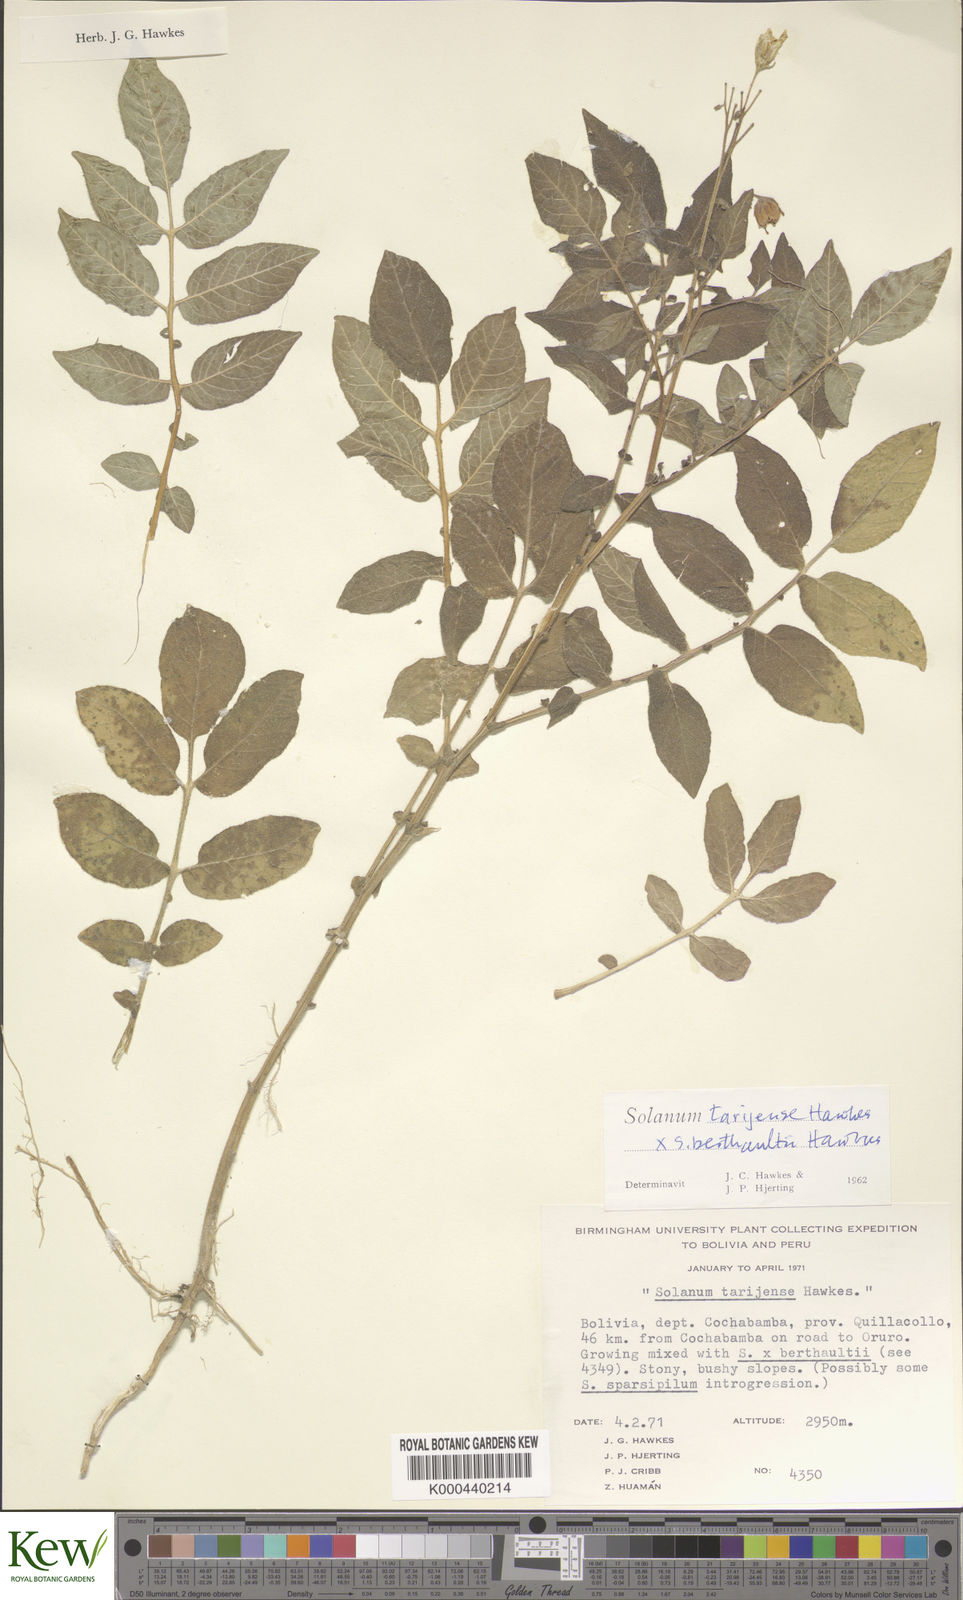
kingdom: Plantae
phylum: Tracheophyta
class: Magnoliopsida
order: Solanales
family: Solanaceae
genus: Solanum
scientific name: Solanum tarijense
